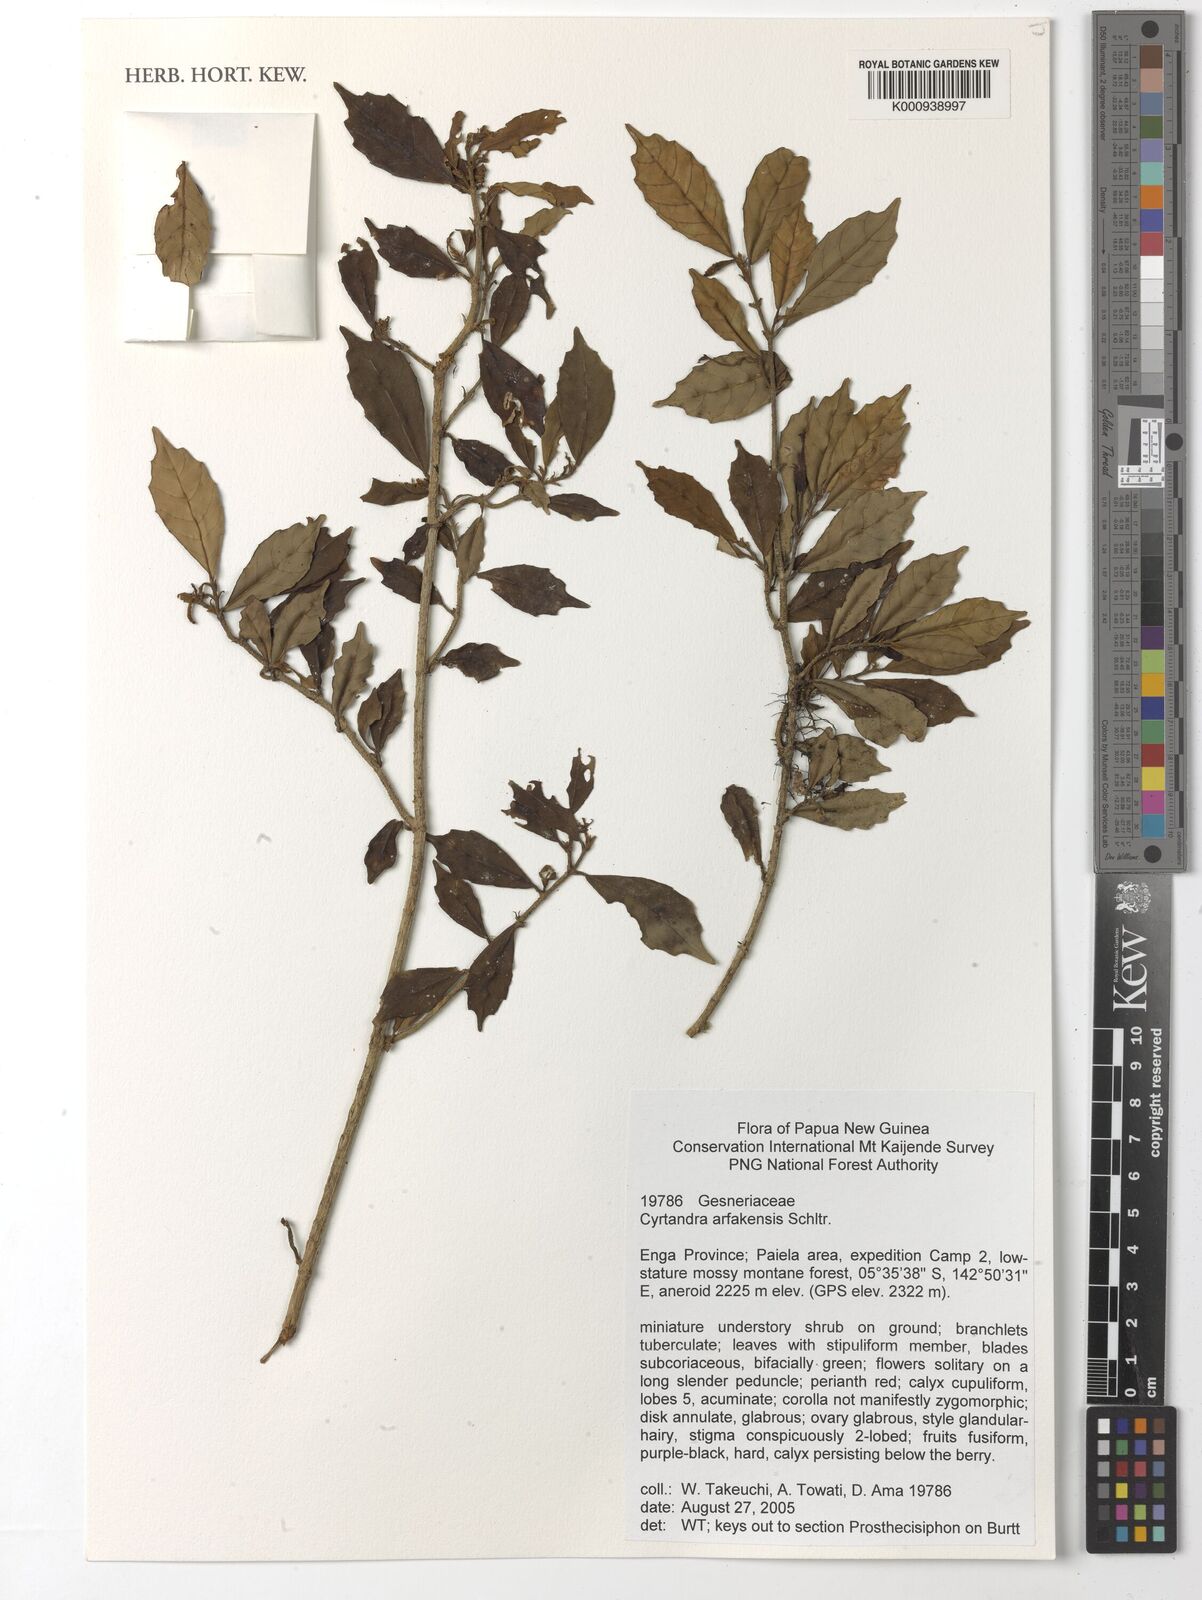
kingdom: Plantae
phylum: Tracheophyta
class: Magnoliopsida
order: Lamiales
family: Gesneriaceae
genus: Cyrtandra
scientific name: Cyrtandra arfakensis
